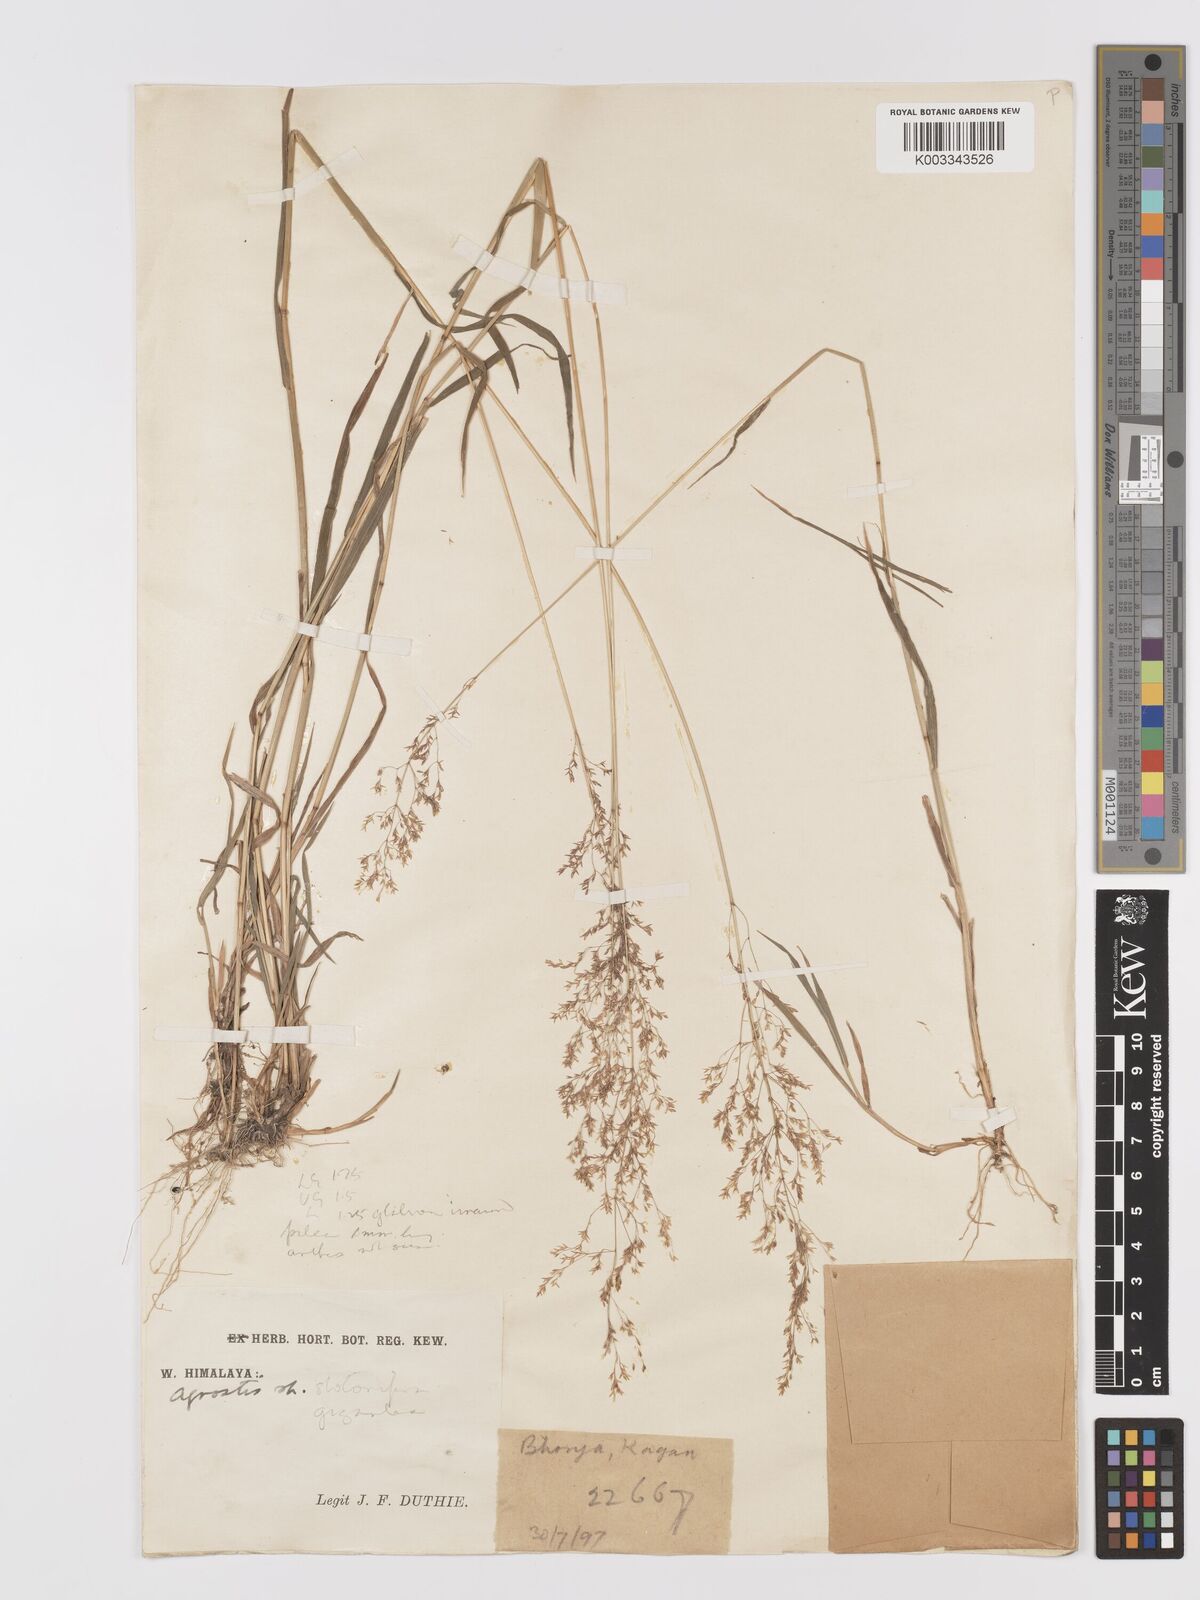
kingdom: Plantae
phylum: Tracheophyta
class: Liliopsida
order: Poales
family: Poaceae
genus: Agrostis
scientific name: Agrostis gigantea
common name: Black bent
